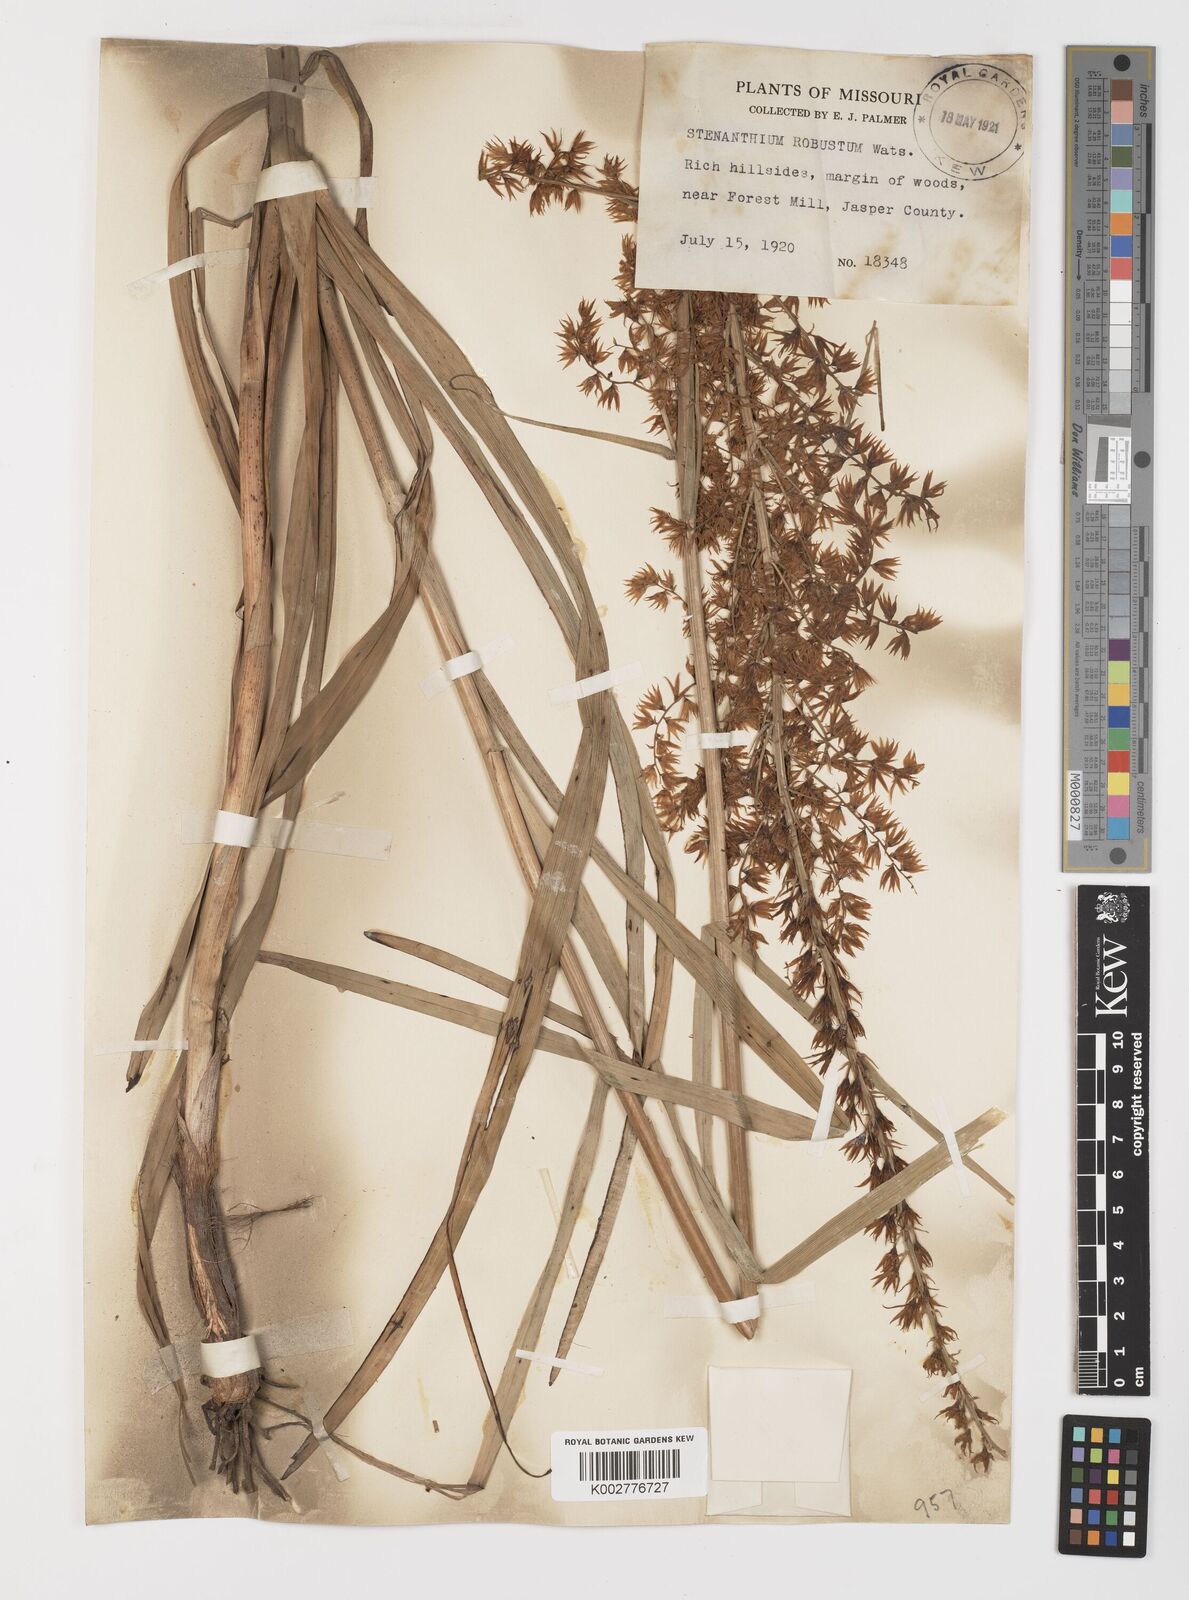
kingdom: Plantae
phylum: Tracheophyta
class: Liliopsida
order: Liliales
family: Melanthiaceae
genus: Stenanthium
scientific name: Stenanthium gramineum
